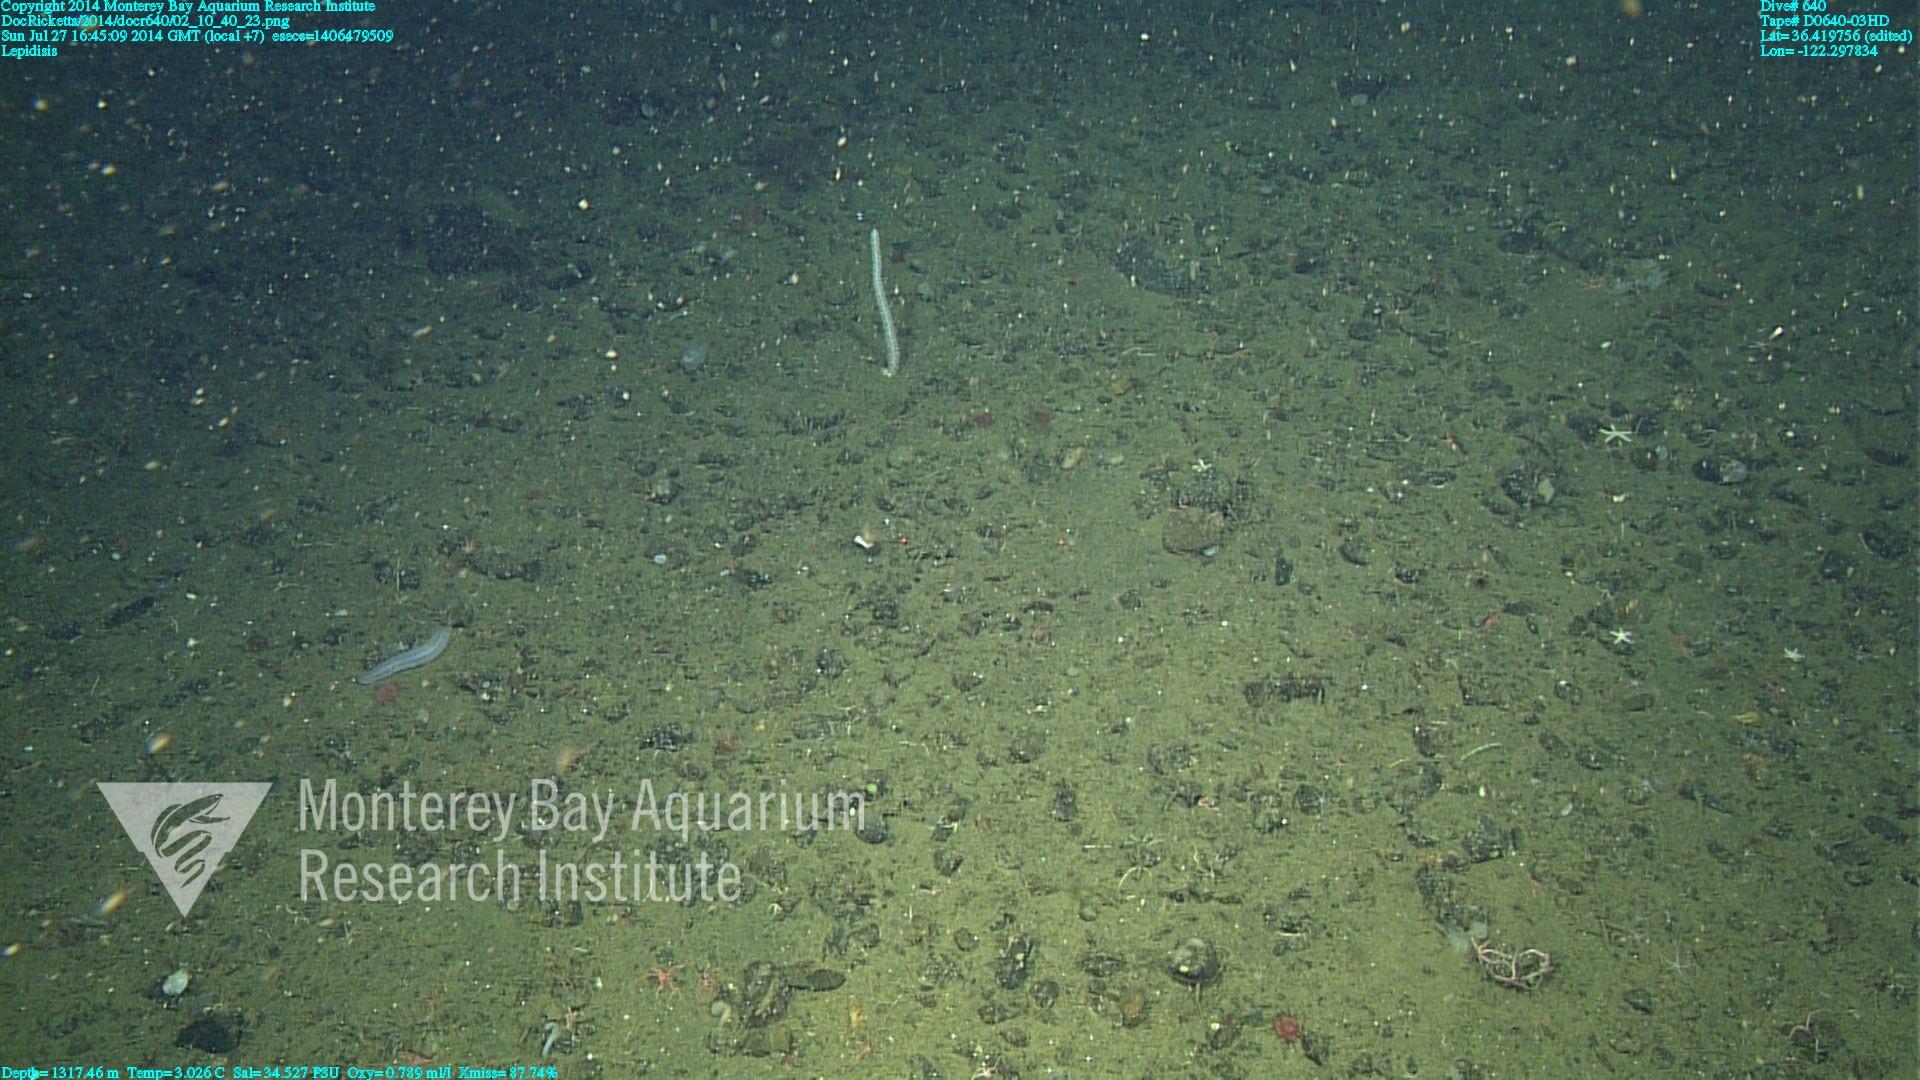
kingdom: Animalia
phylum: Cnidaria
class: Anthozoa
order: Scleralcyonacea
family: Keratoisididae
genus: Lepidisis
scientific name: Lepidisis
